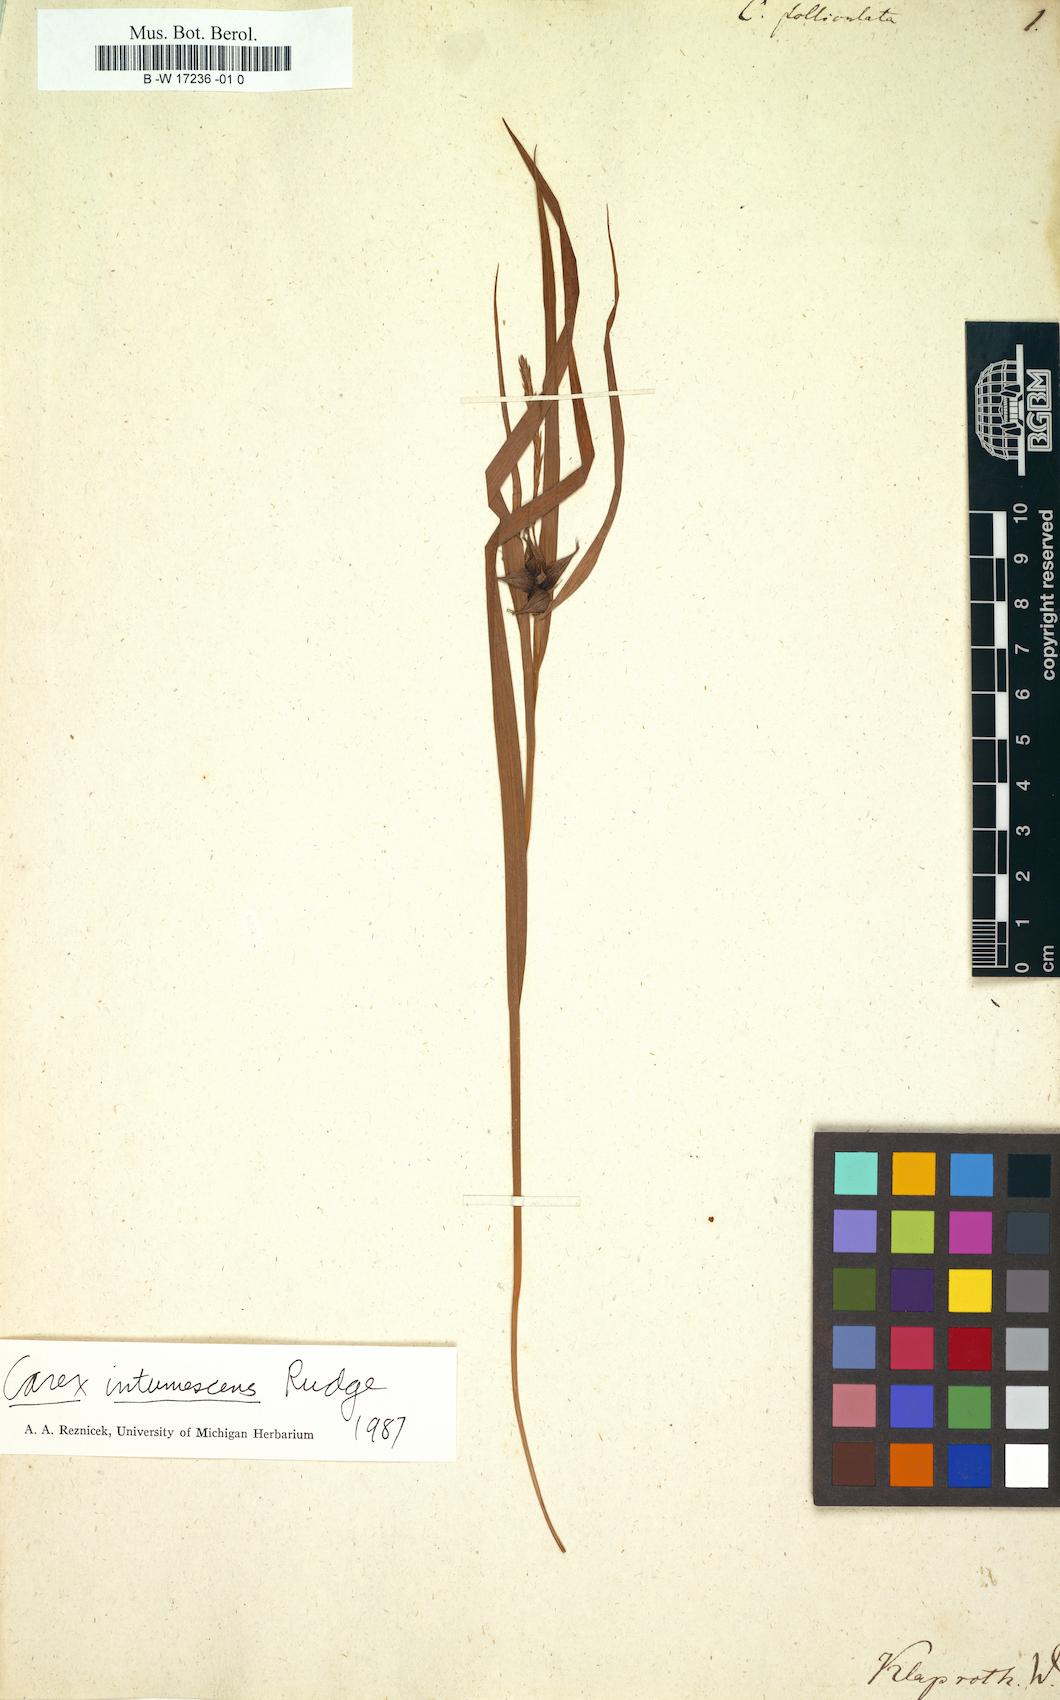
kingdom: Plantae
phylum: Tracheophyta
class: Liliopsida
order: Poales
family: Cyperaceae
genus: Carex
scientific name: Carex echinata
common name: Star sedge
